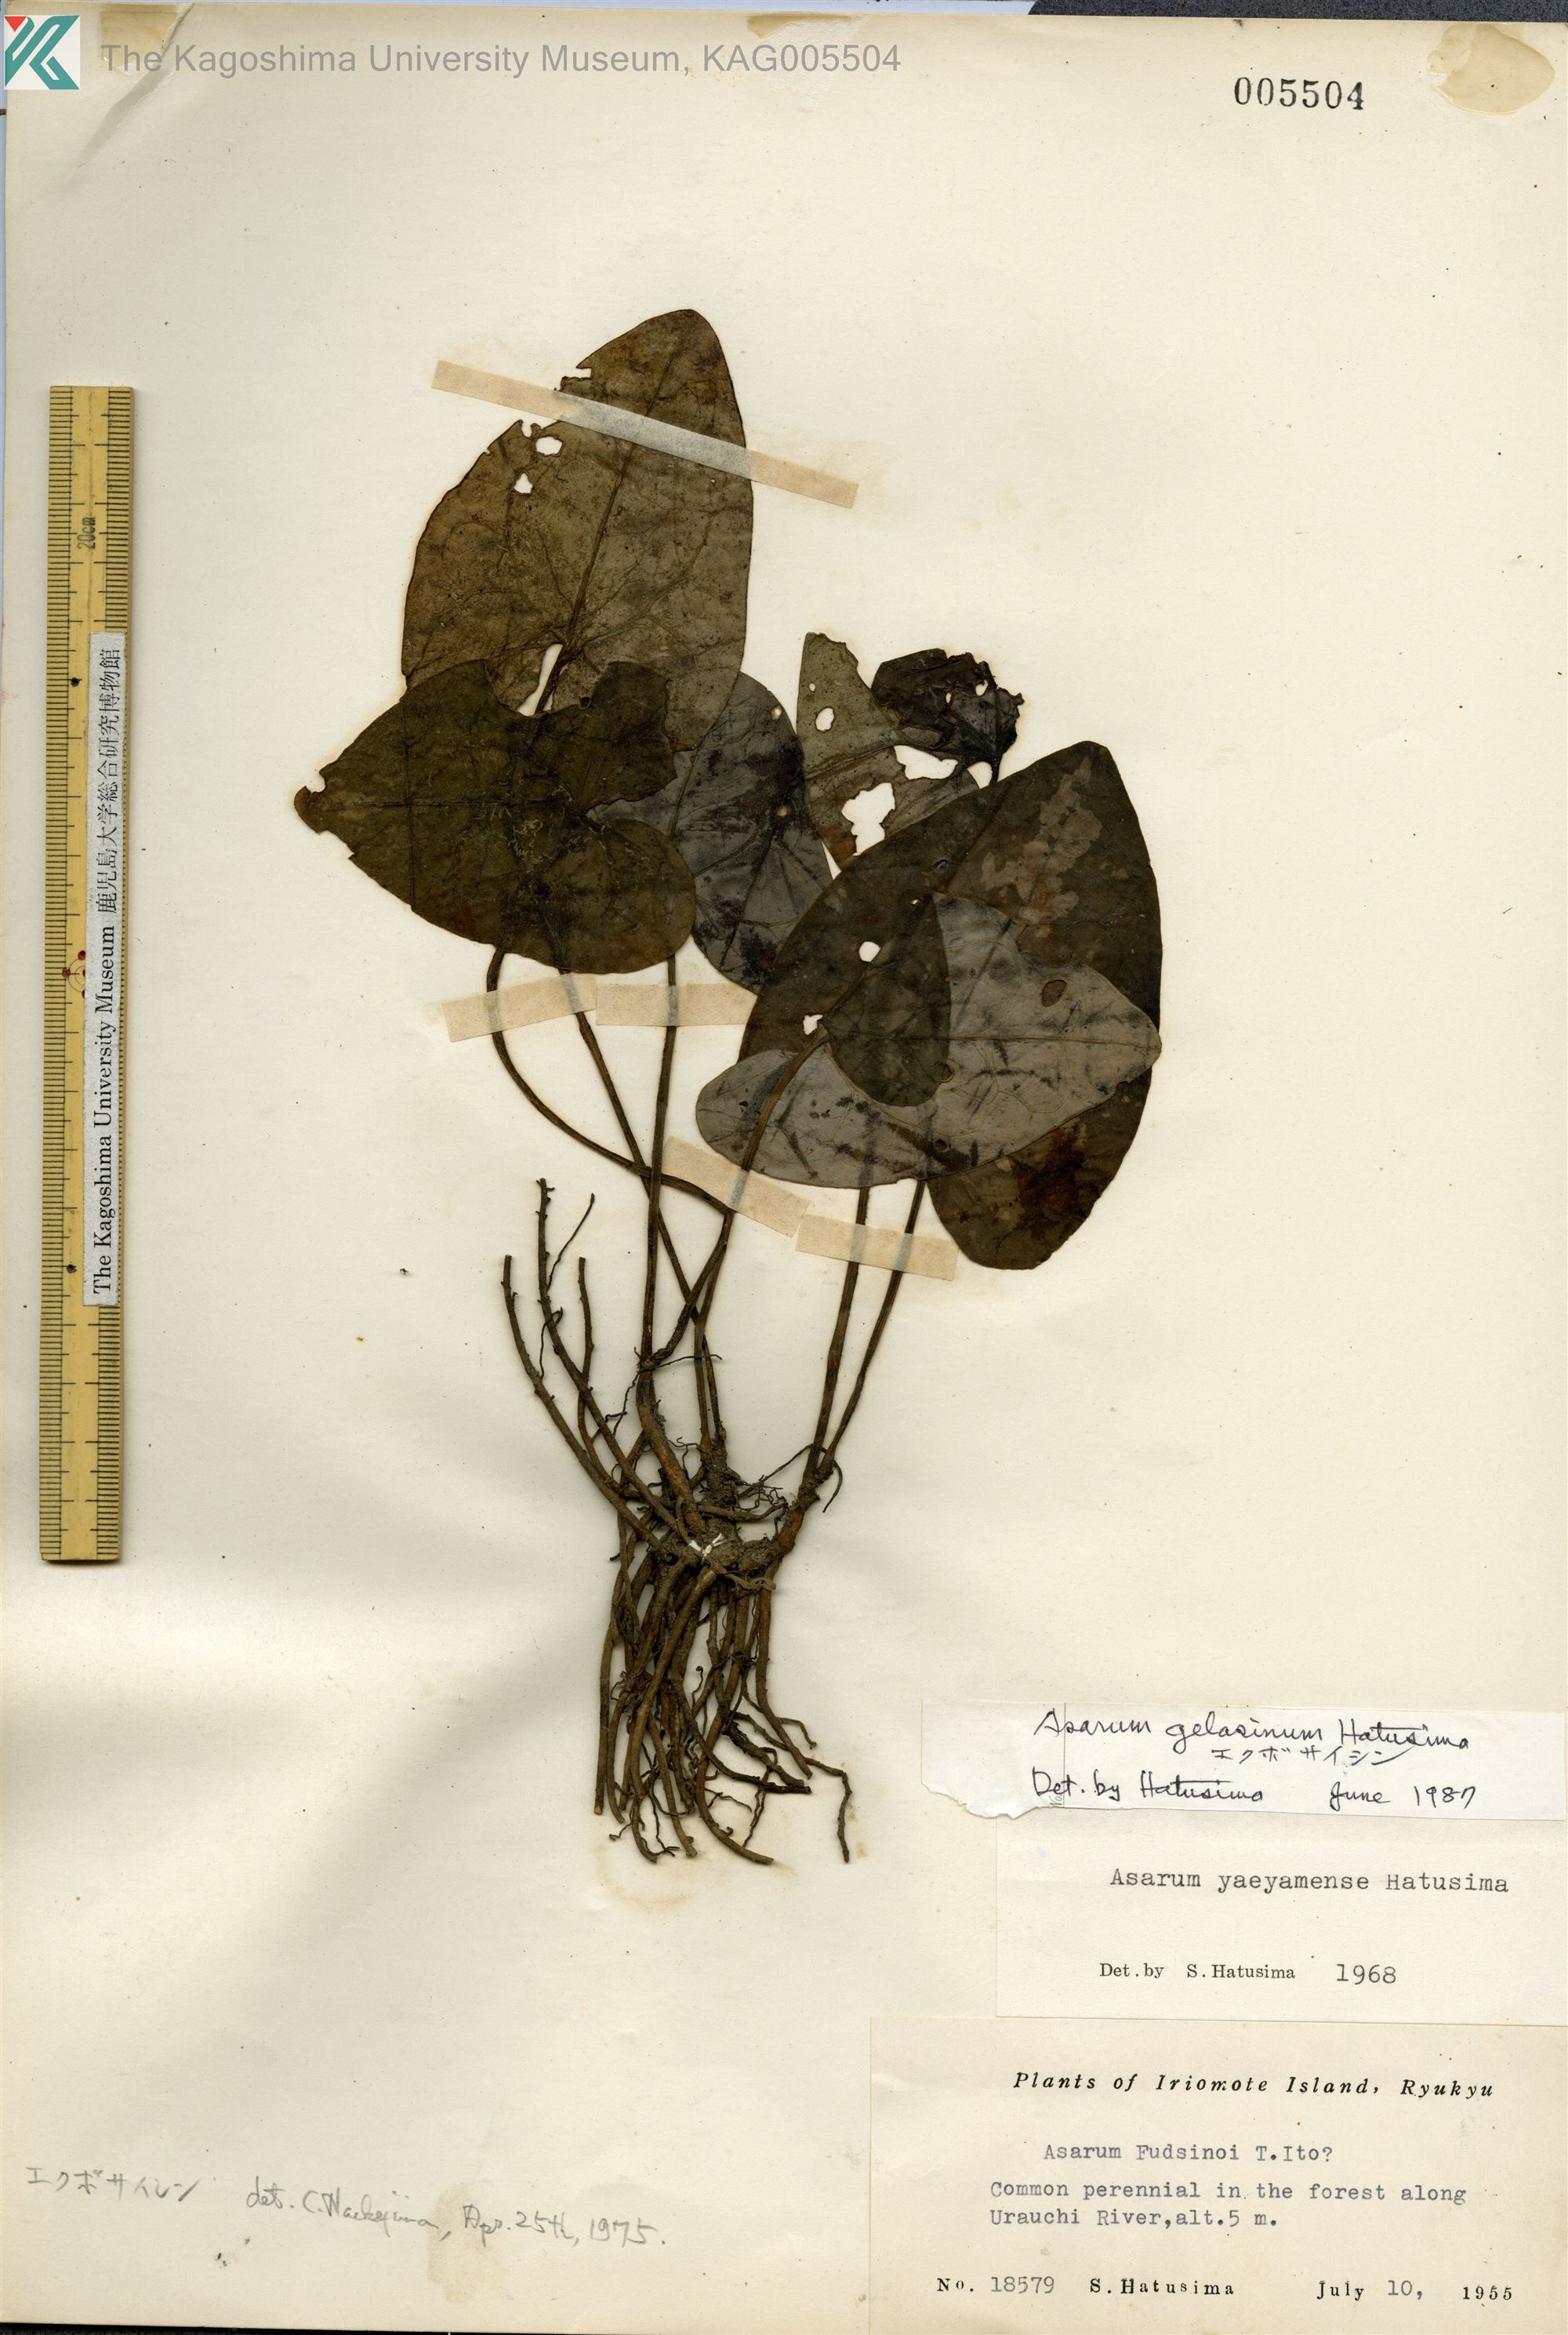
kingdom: Plantae
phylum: Tracheophyta
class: Magnoliopsida
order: Piperales
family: Aristolochiaceae
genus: Asarum
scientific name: Asarum gelasinum
